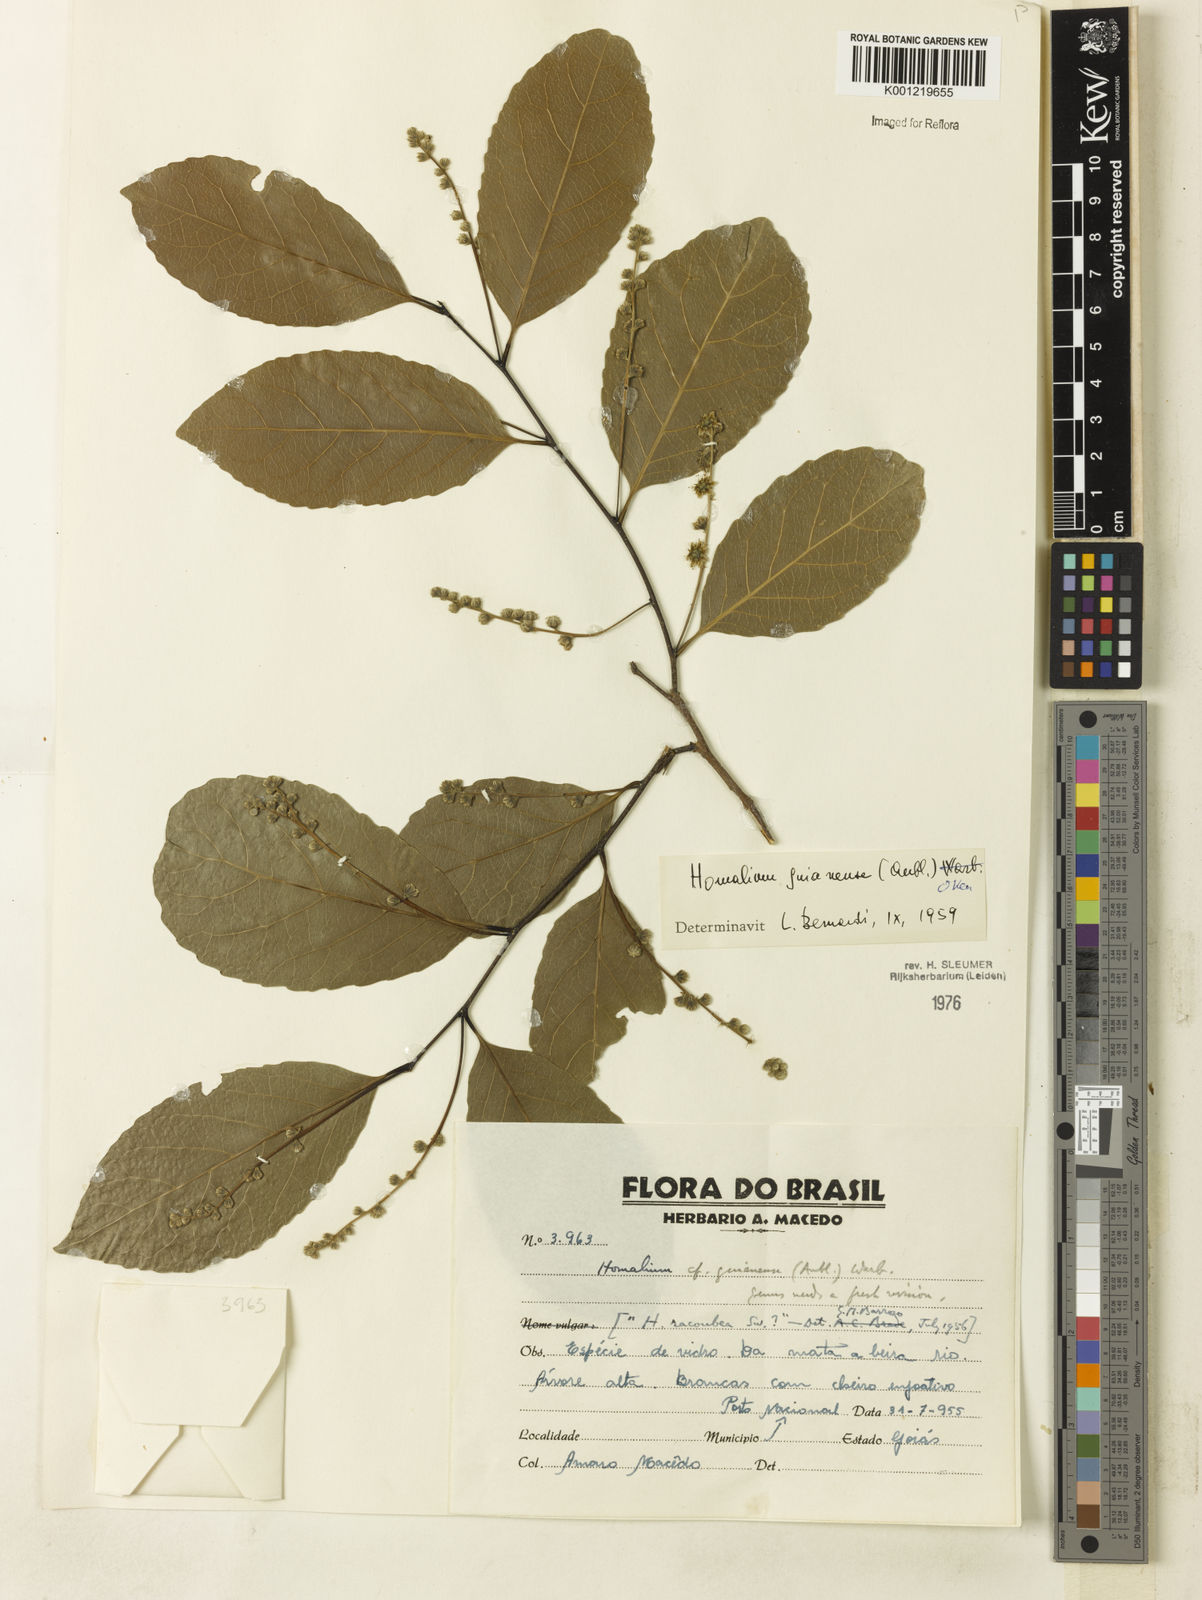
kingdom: Plantae
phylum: Tracheophyta
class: Magnoliopsida
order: Malpighiales
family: Salicaceae
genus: Homalium
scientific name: Homalium guianense
